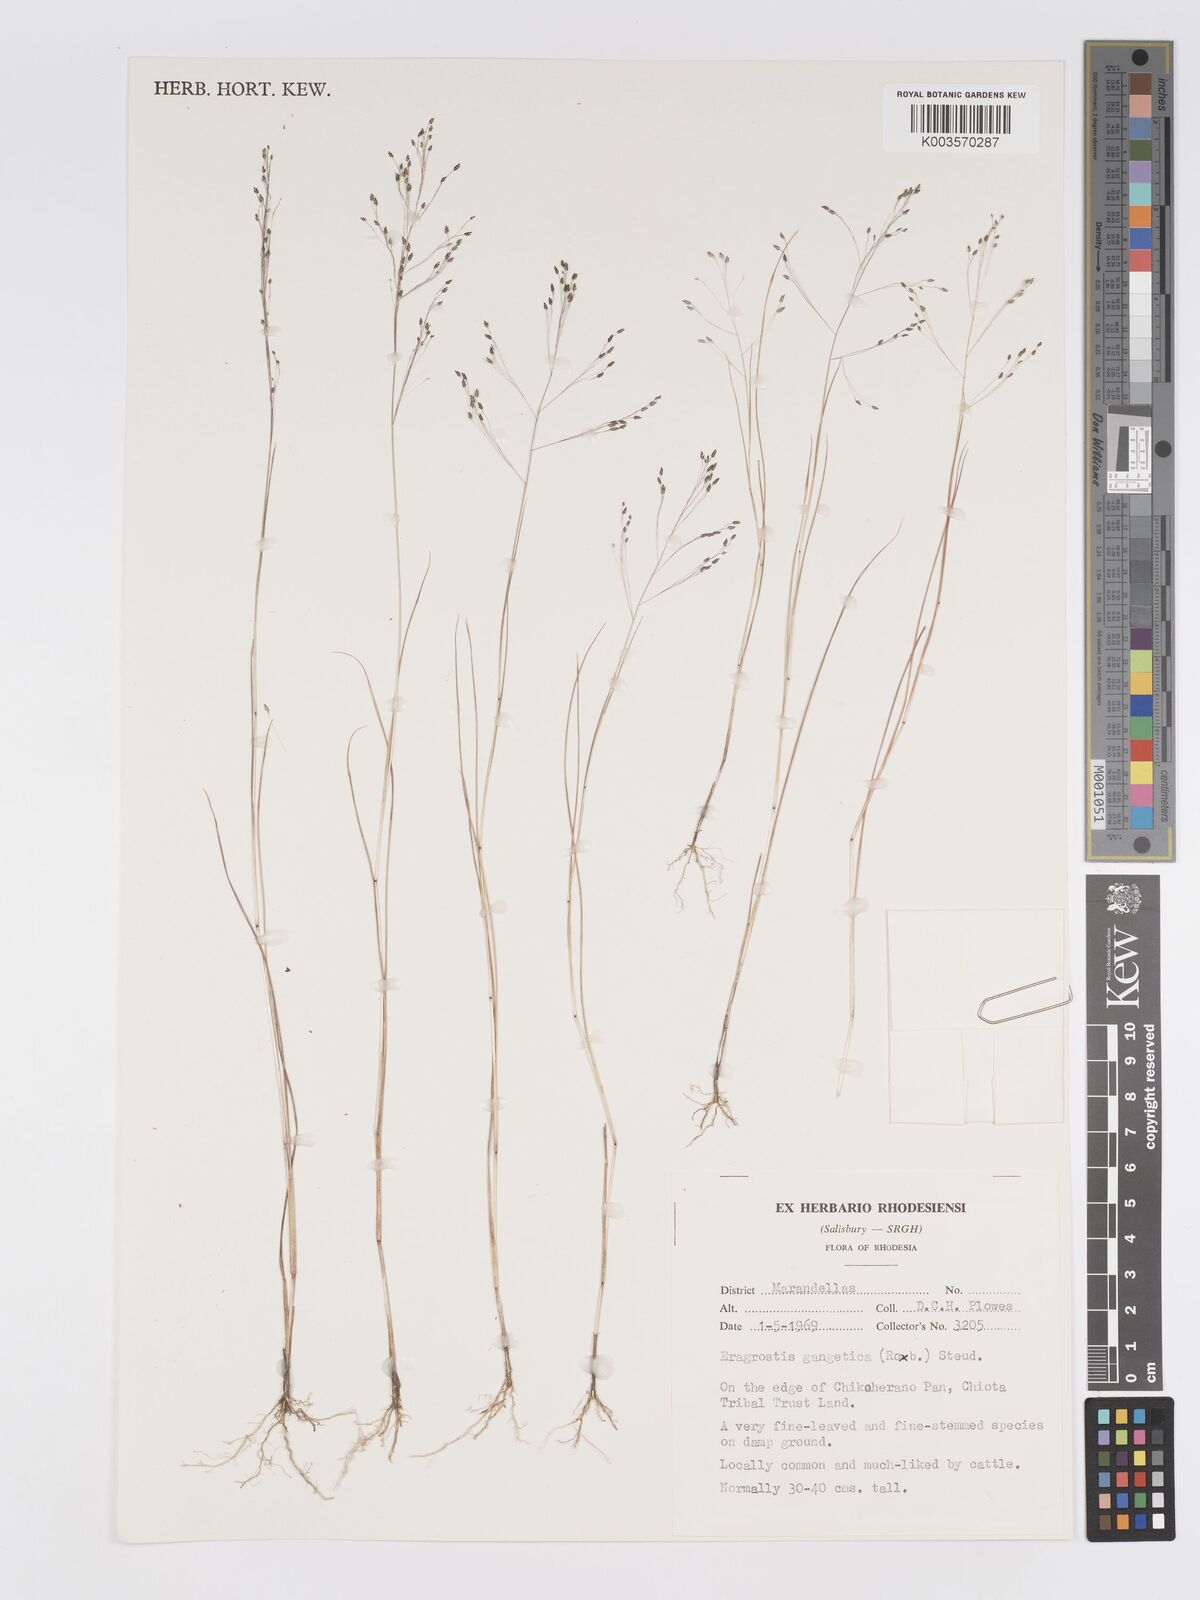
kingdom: Plantae
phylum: Tracheophyta
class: Liliopsida
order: Poales
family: Poaceae
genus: Eragrostis
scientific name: Eragrostis gangetica
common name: Slimflower lovegrass
